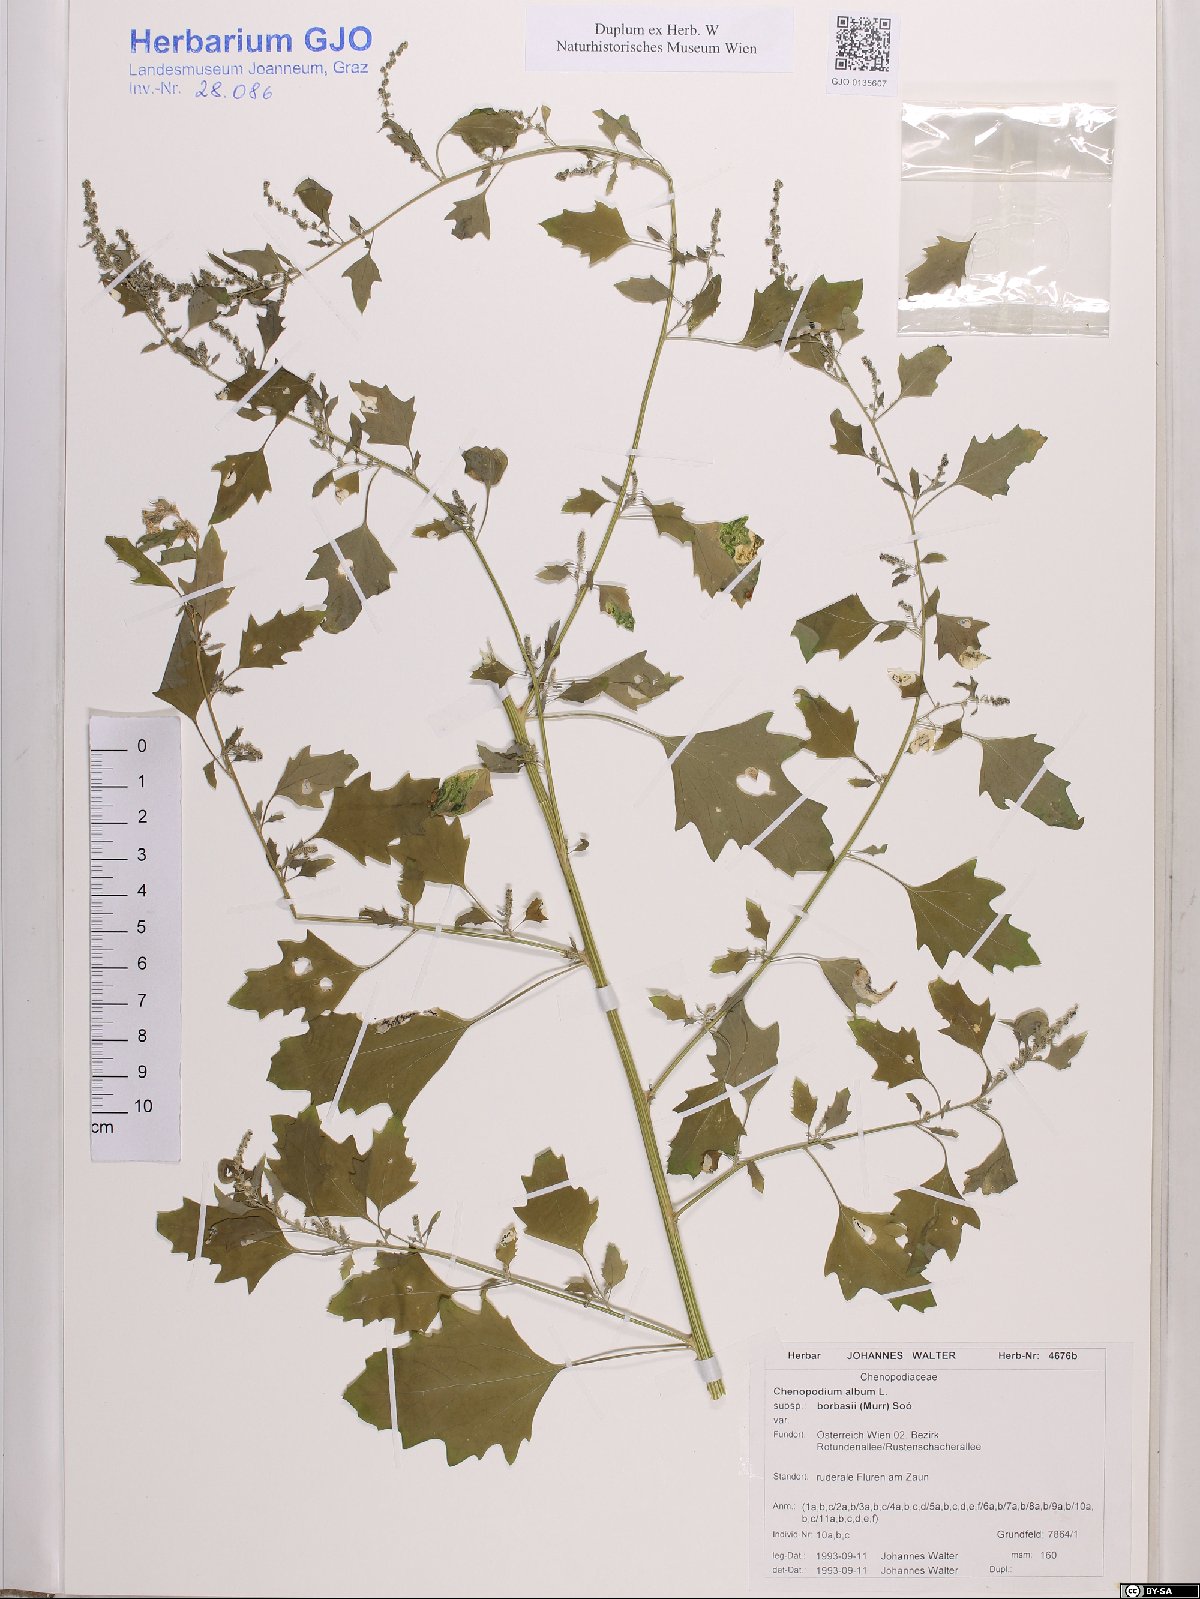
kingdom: Plantae
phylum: Tracheophyta
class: Magnoliopsida
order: Caryophyllales
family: Amaranthaceae
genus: Chenopodium
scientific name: Chenopodium borbasii
